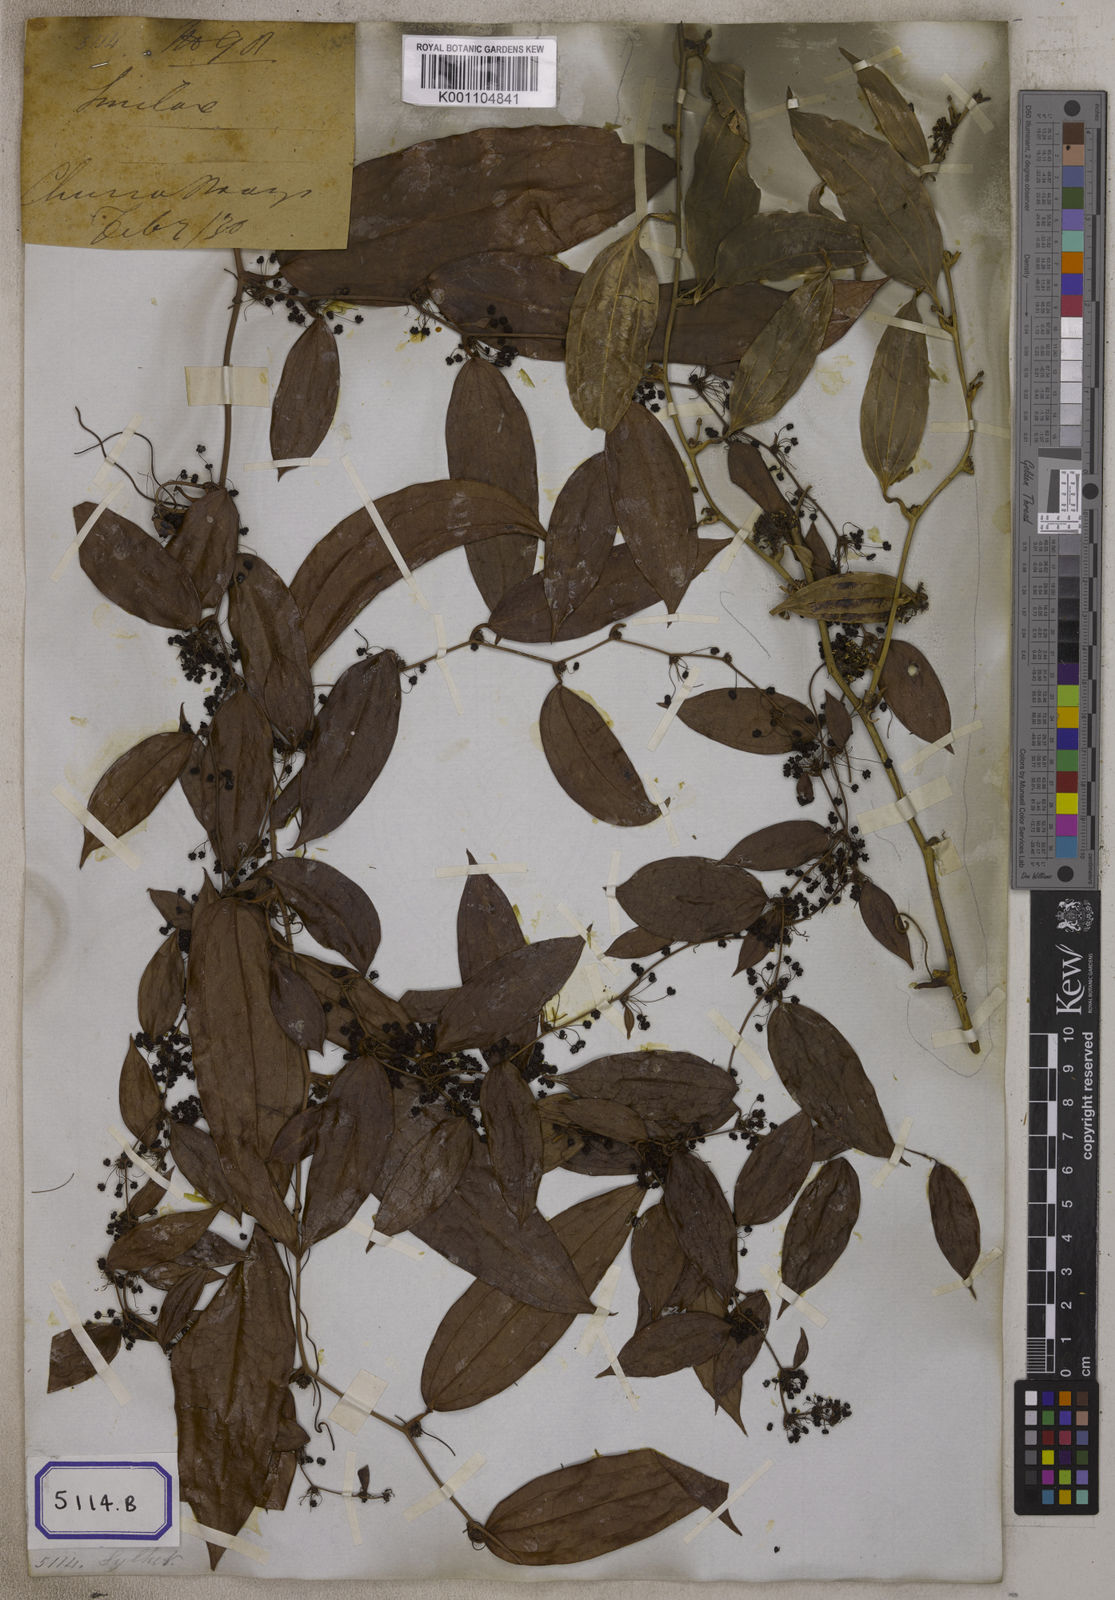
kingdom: Plantae
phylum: Tracheophyta
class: Liliopsida
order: Liliales
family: Smilacaceae
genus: Smilax
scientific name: Smilax glabra
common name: Chinese smilax
